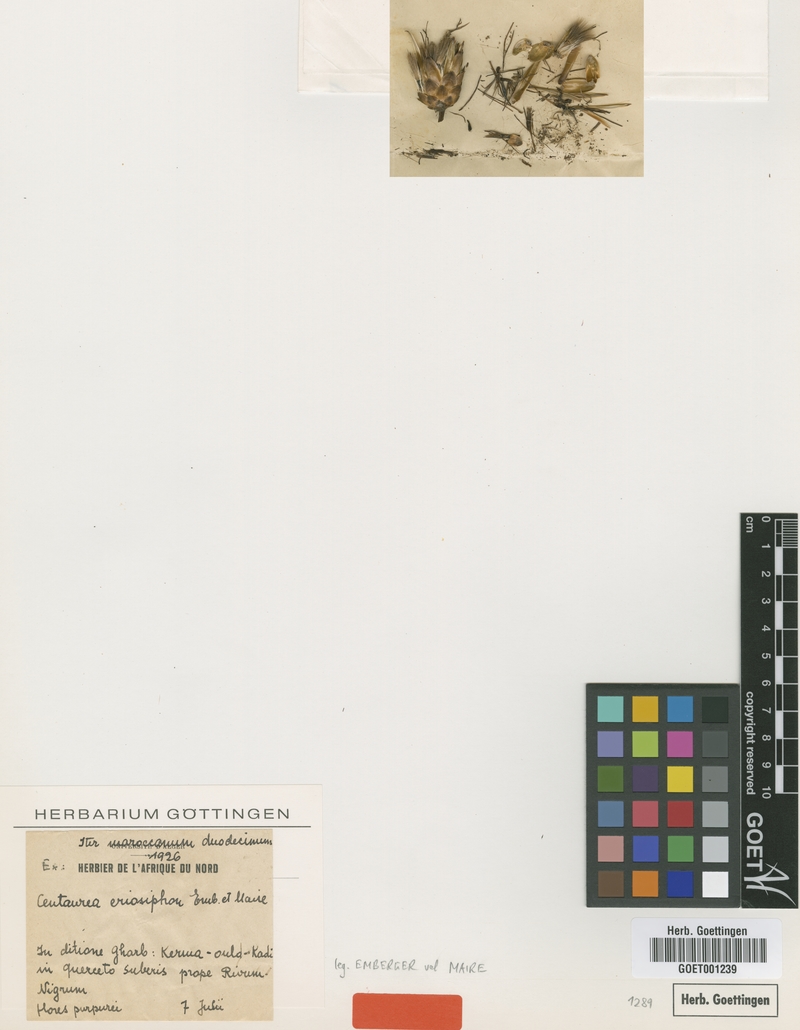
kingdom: Plantae
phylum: Tracheophyta
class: Magnoliopsida
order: Asterales
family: Asteraceae
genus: Rhaponticoides
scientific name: Rhaponticoides eriosiphon
